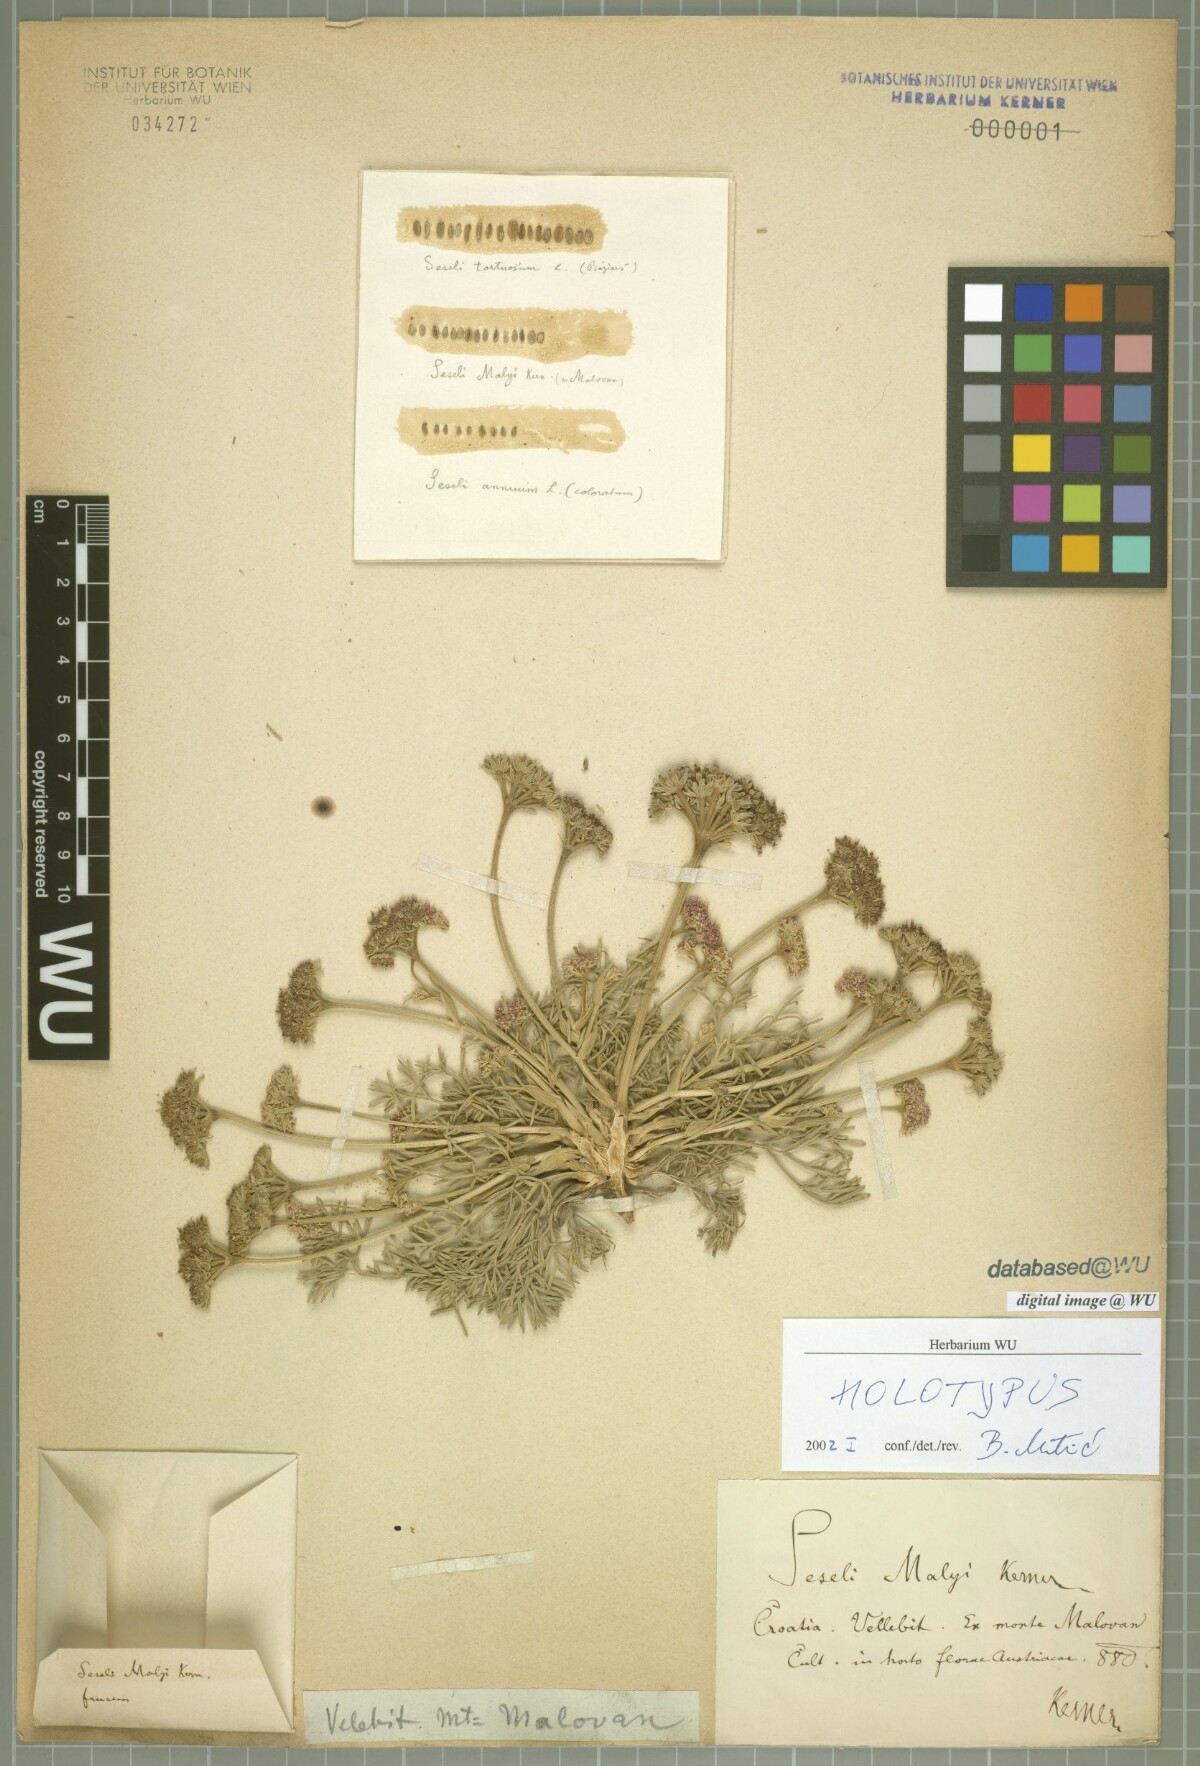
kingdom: Plantae
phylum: Tracheophyta
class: Magnoliopsida
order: Apiales
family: Apiaceae
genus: Seseli
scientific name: Seseli malyi
